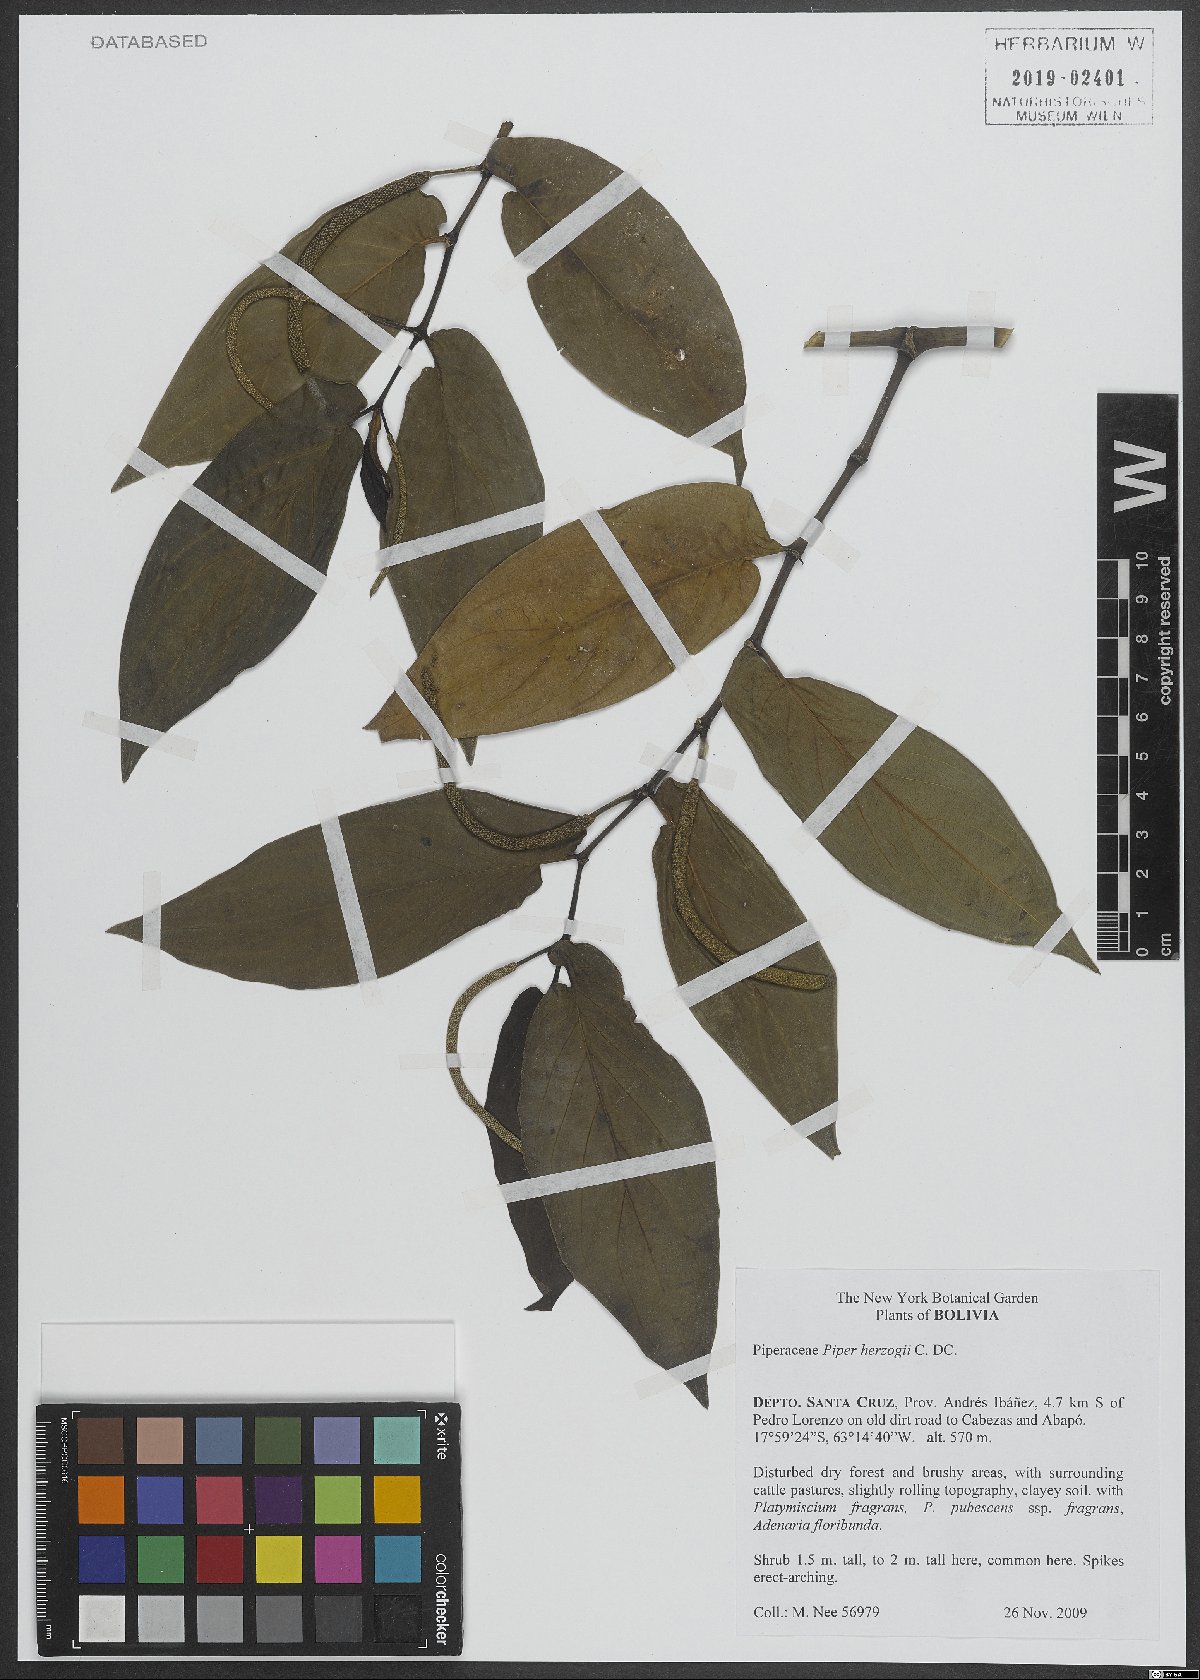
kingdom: Plantae
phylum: Tracheophyta
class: Magnoliopsida
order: Piperales
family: Piperaceae
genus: Piper
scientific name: Piper aduncum
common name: Spiked pepper
